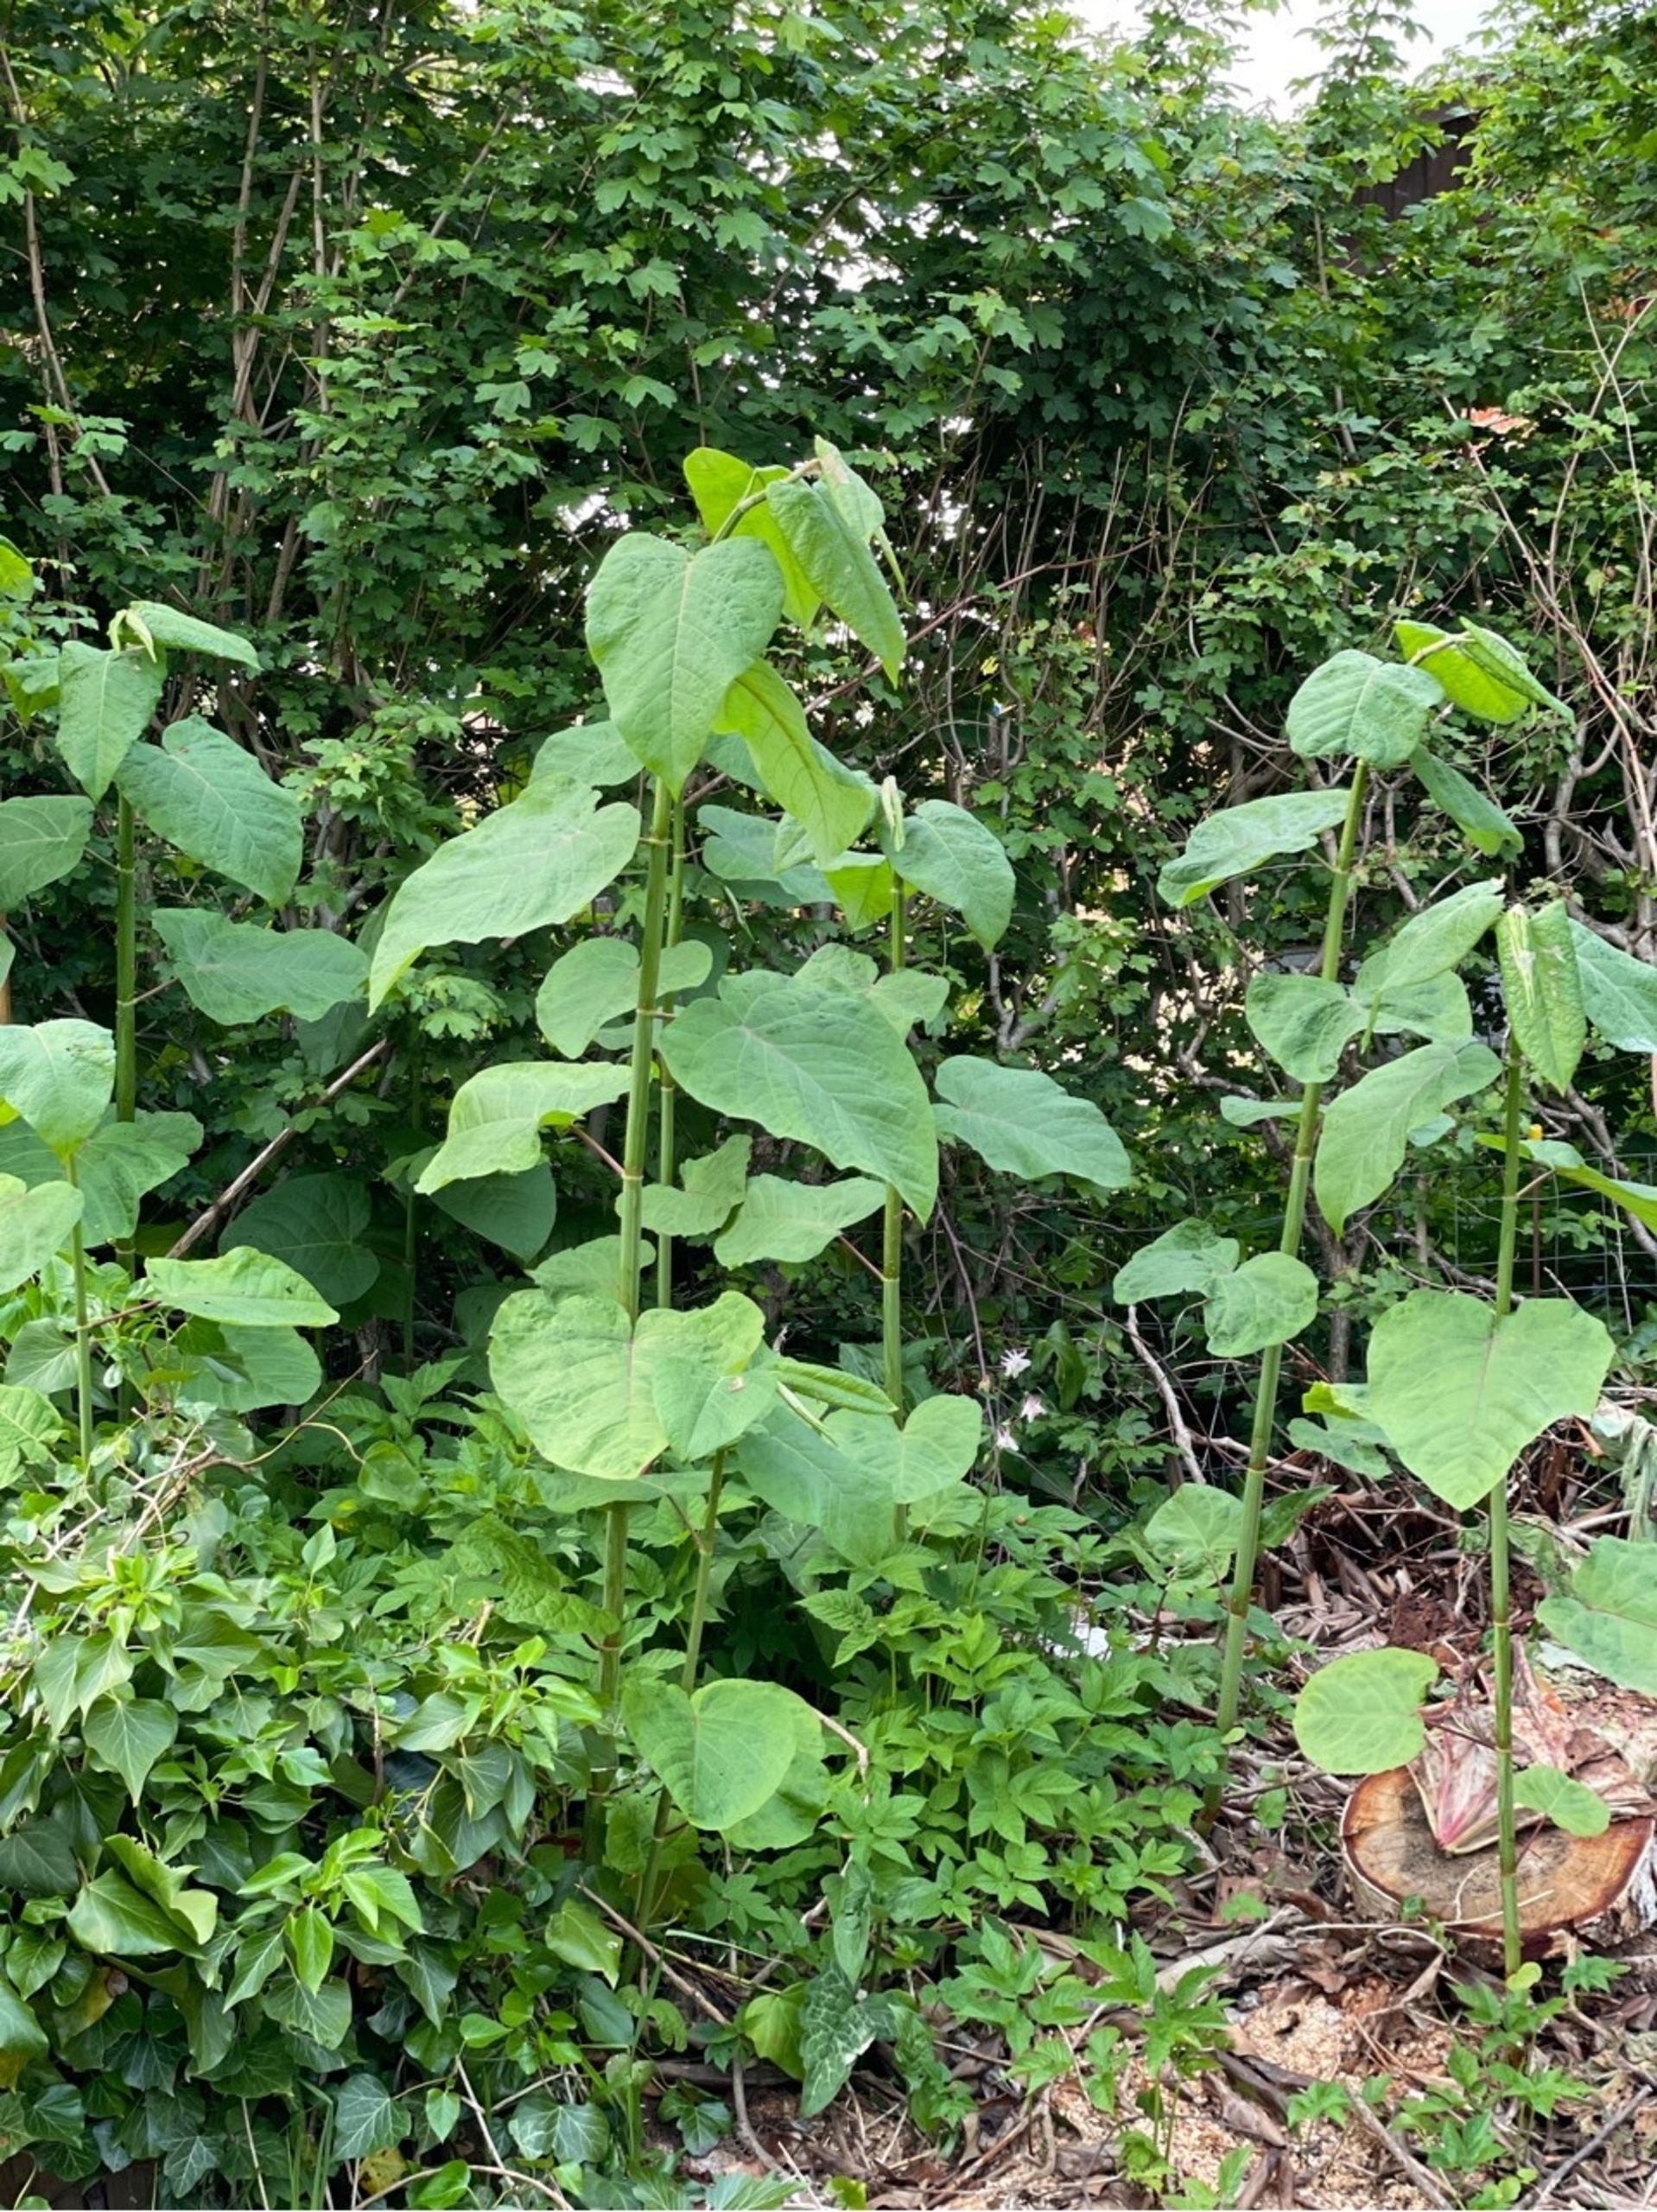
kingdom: Plantae
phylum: Tracheophyta
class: Magnoliopsida
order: Caryophyllales
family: Polygonaceae
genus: Reynoutria
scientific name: Reynoutria sachalinensis
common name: Kæmpe-pileurt
